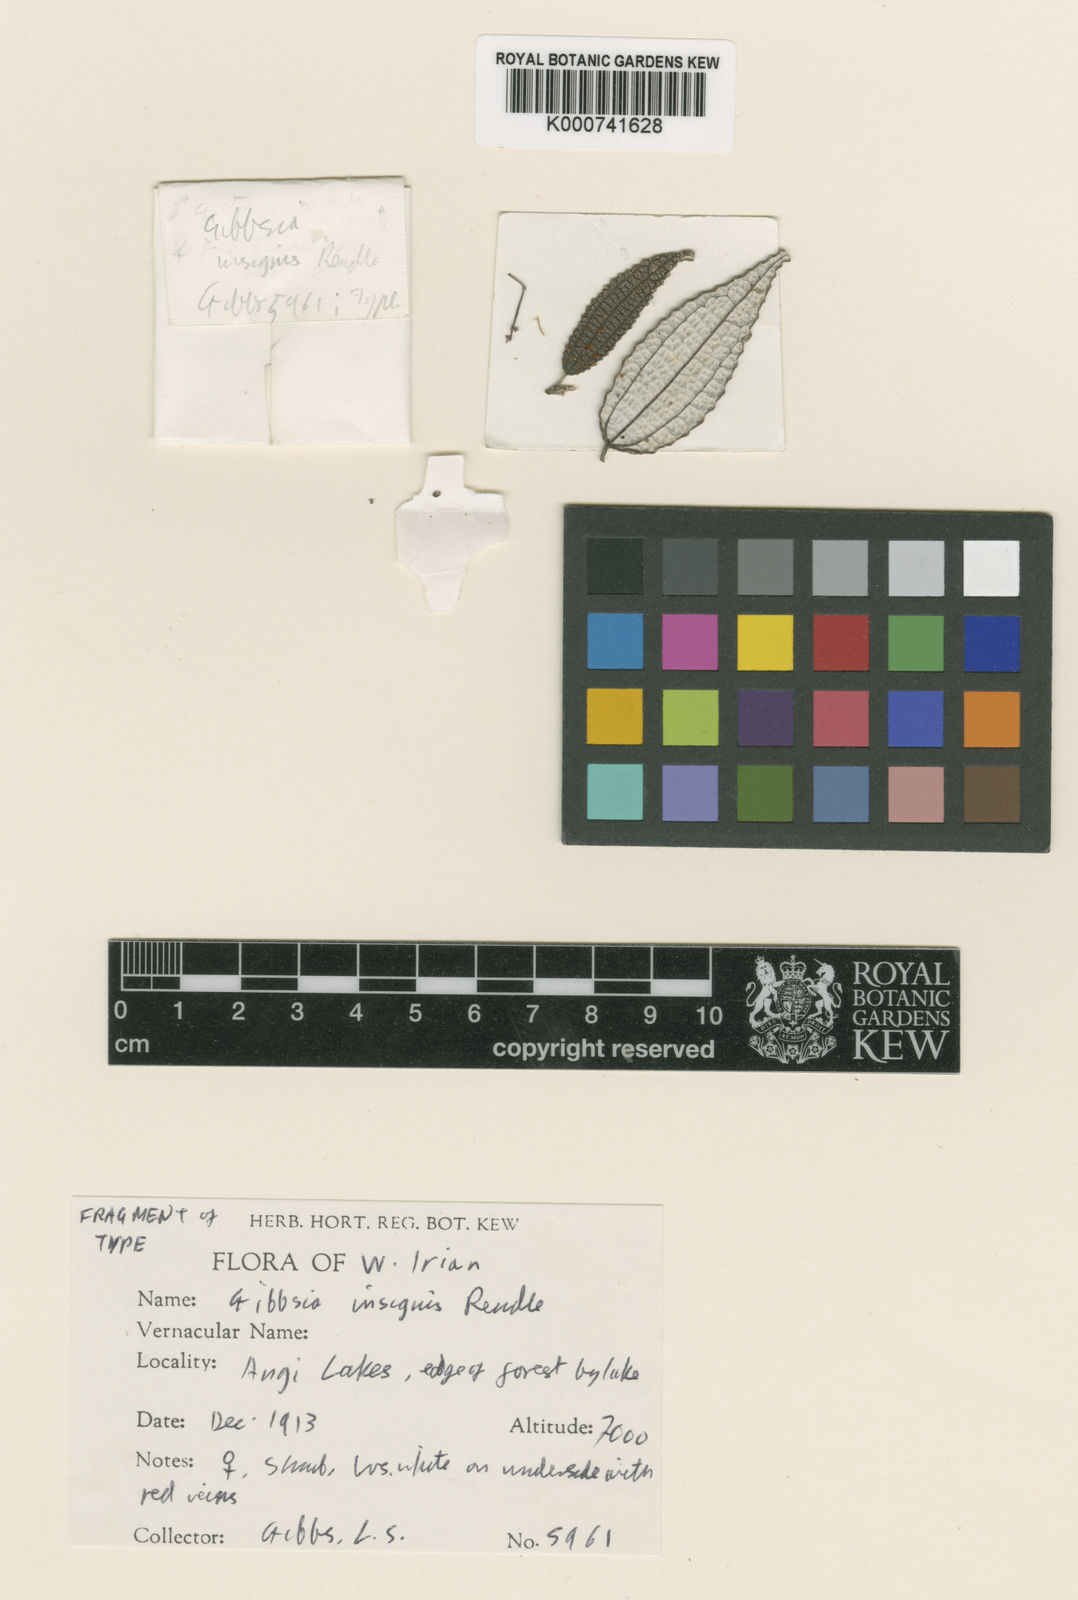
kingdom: Plantae
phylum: Tracheophyta
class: Magnoliopsida
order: Rosales
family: Urticaceae
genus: Leucosyke
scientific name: Leucosyke
